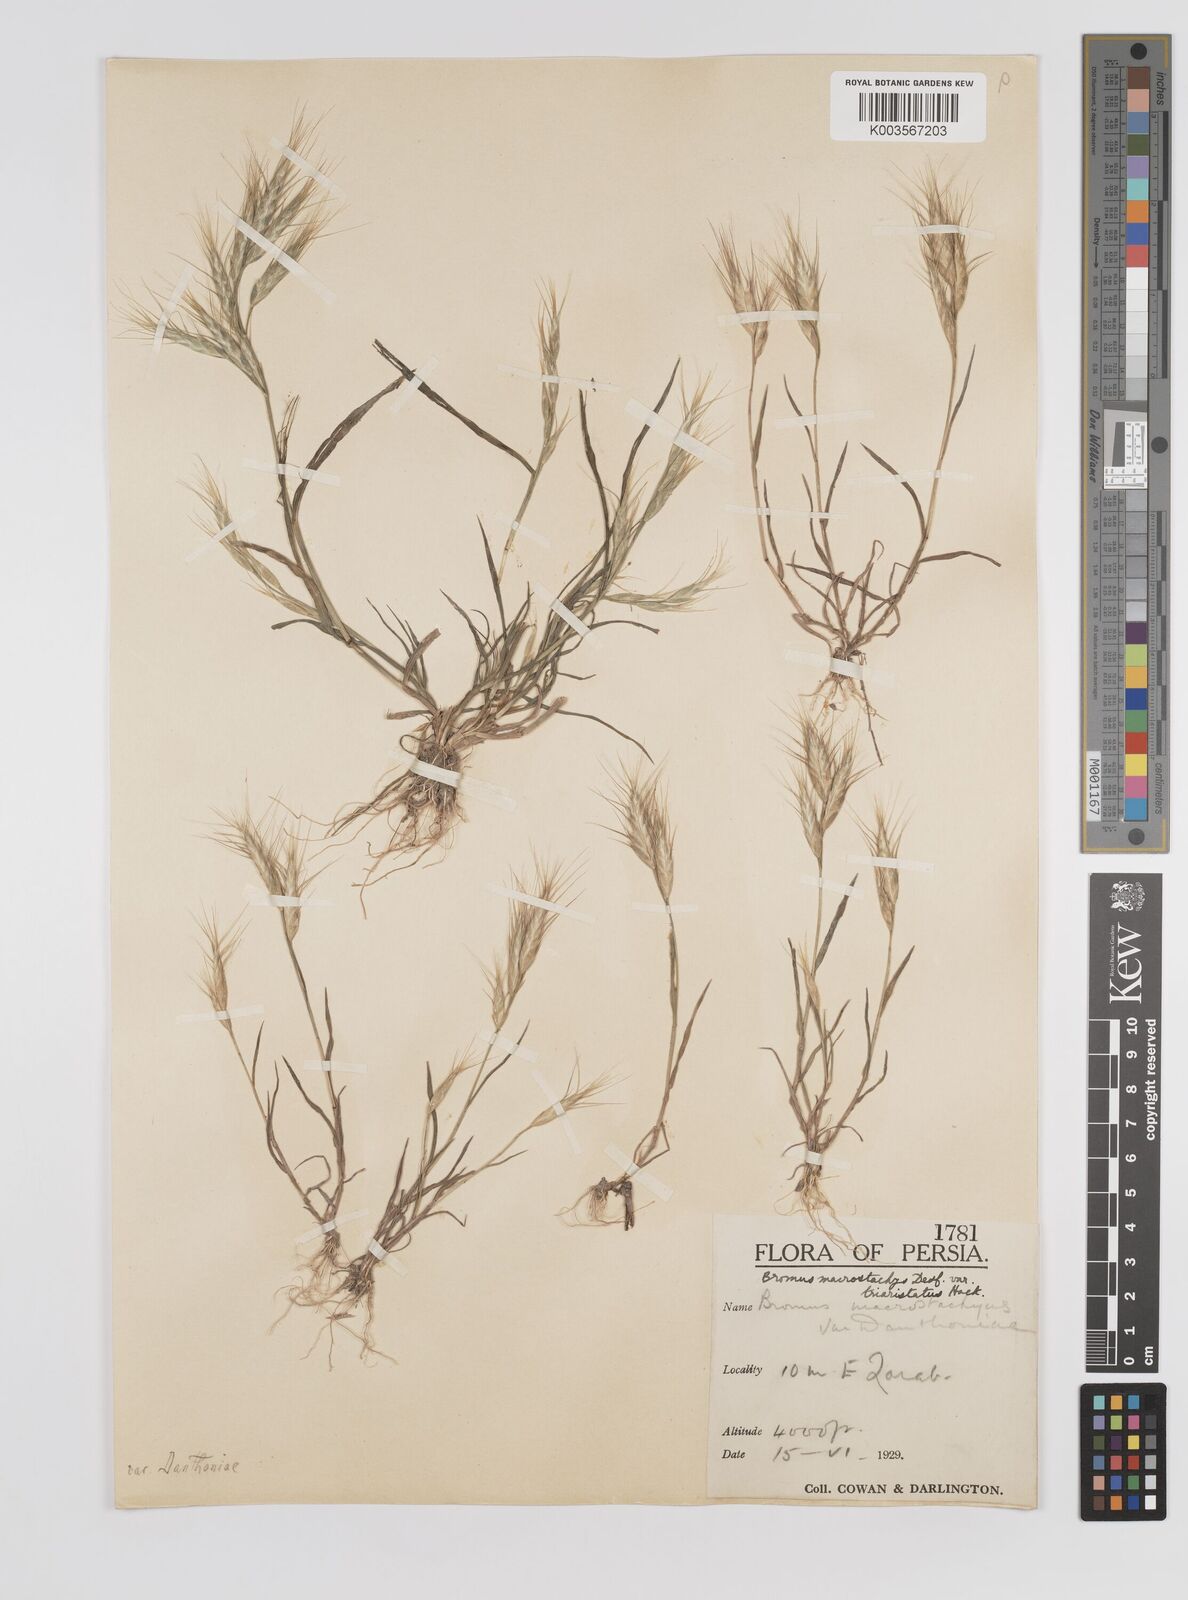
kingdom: Plantae
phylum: Tracheophyta
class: Liliopsida
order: Poales
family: Poaceae
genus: Bromus
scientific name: Bromus danthoniae
